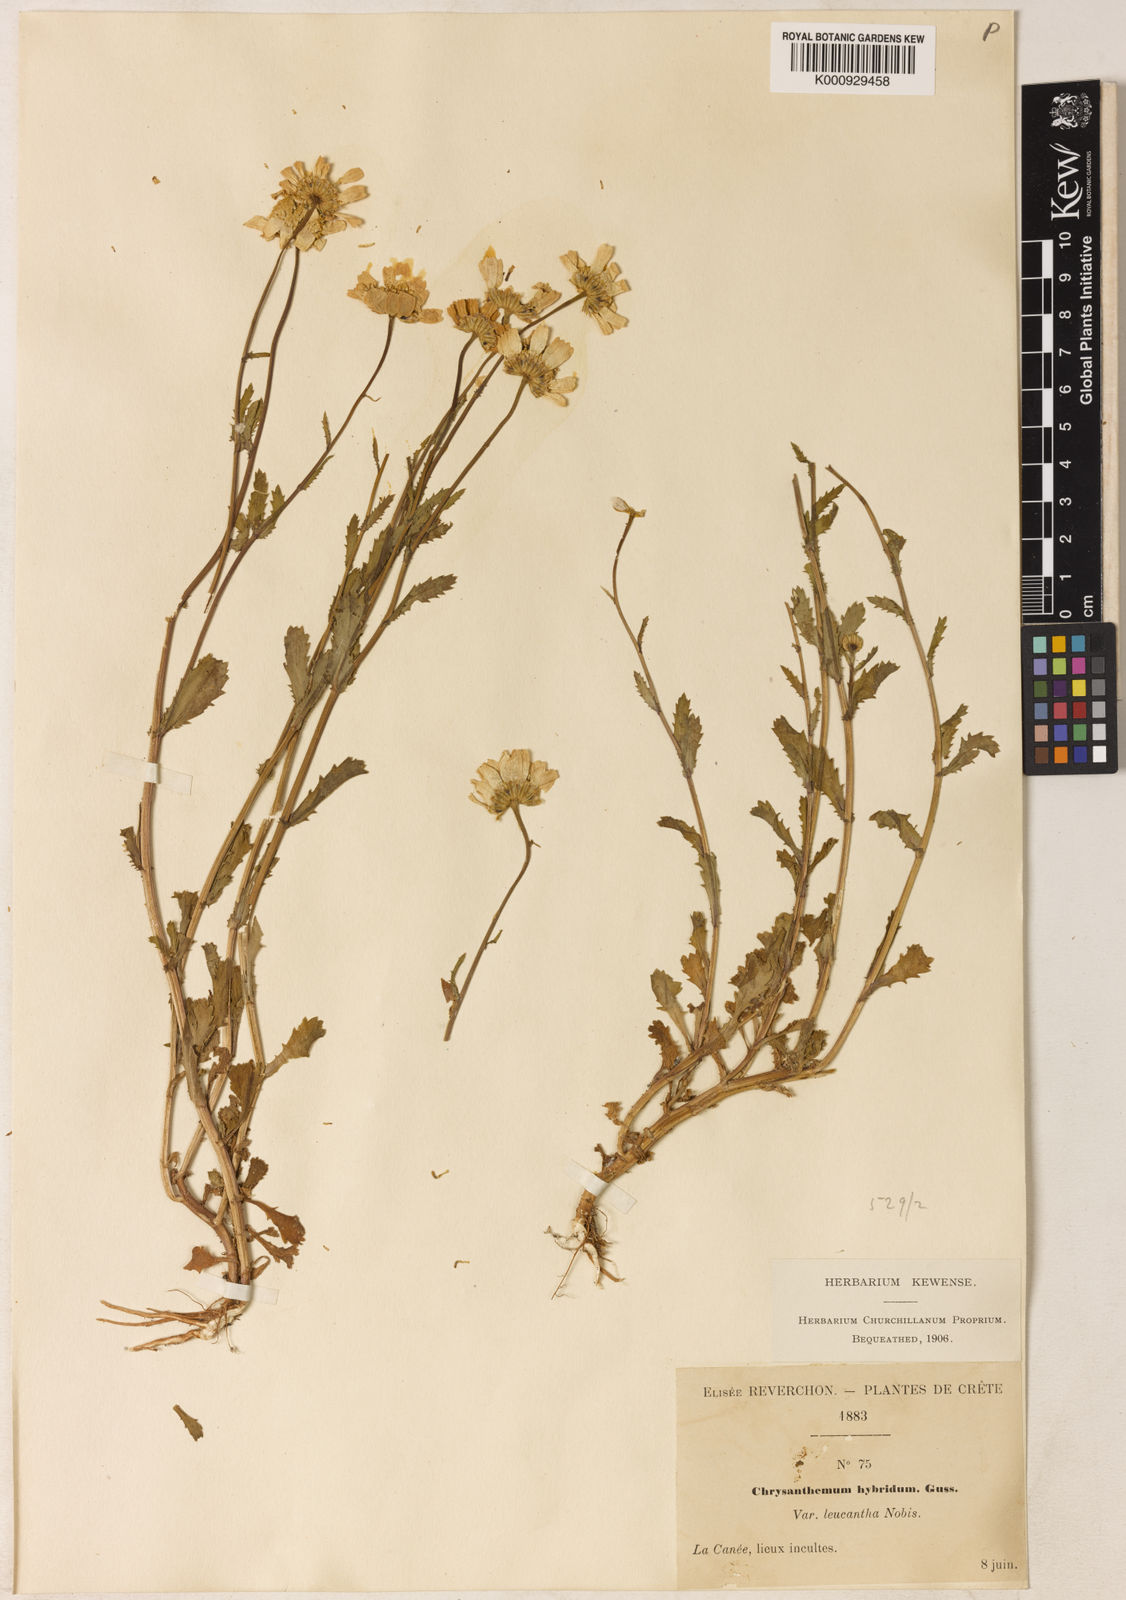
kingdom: Plantae
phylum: Tracheophyta
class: Magnoliopsida
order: Asterales
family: Asteraceae
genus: Coleostephus
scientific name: Coleostephus myconis
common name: Mediterranean marigold
